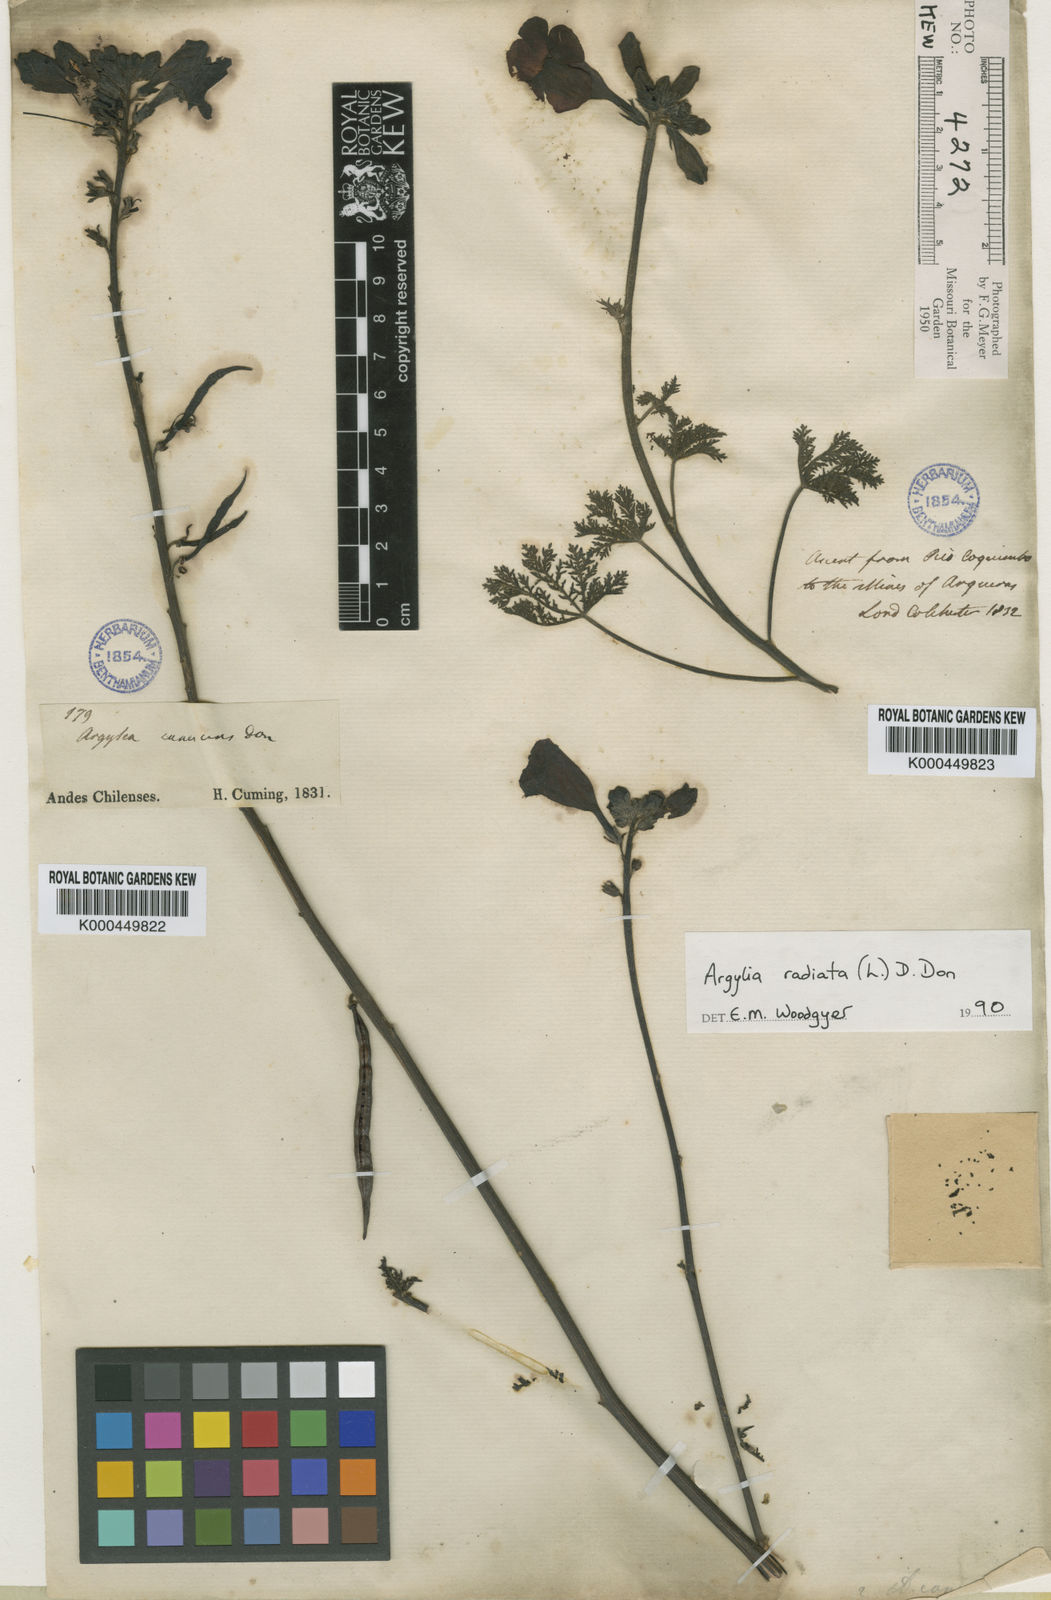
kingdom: Plantae
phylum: Tracheophyta
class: Magnoliopsida
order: Lamiales
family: Bignoniaceae
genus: Argylia
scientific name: Argylia radiata
